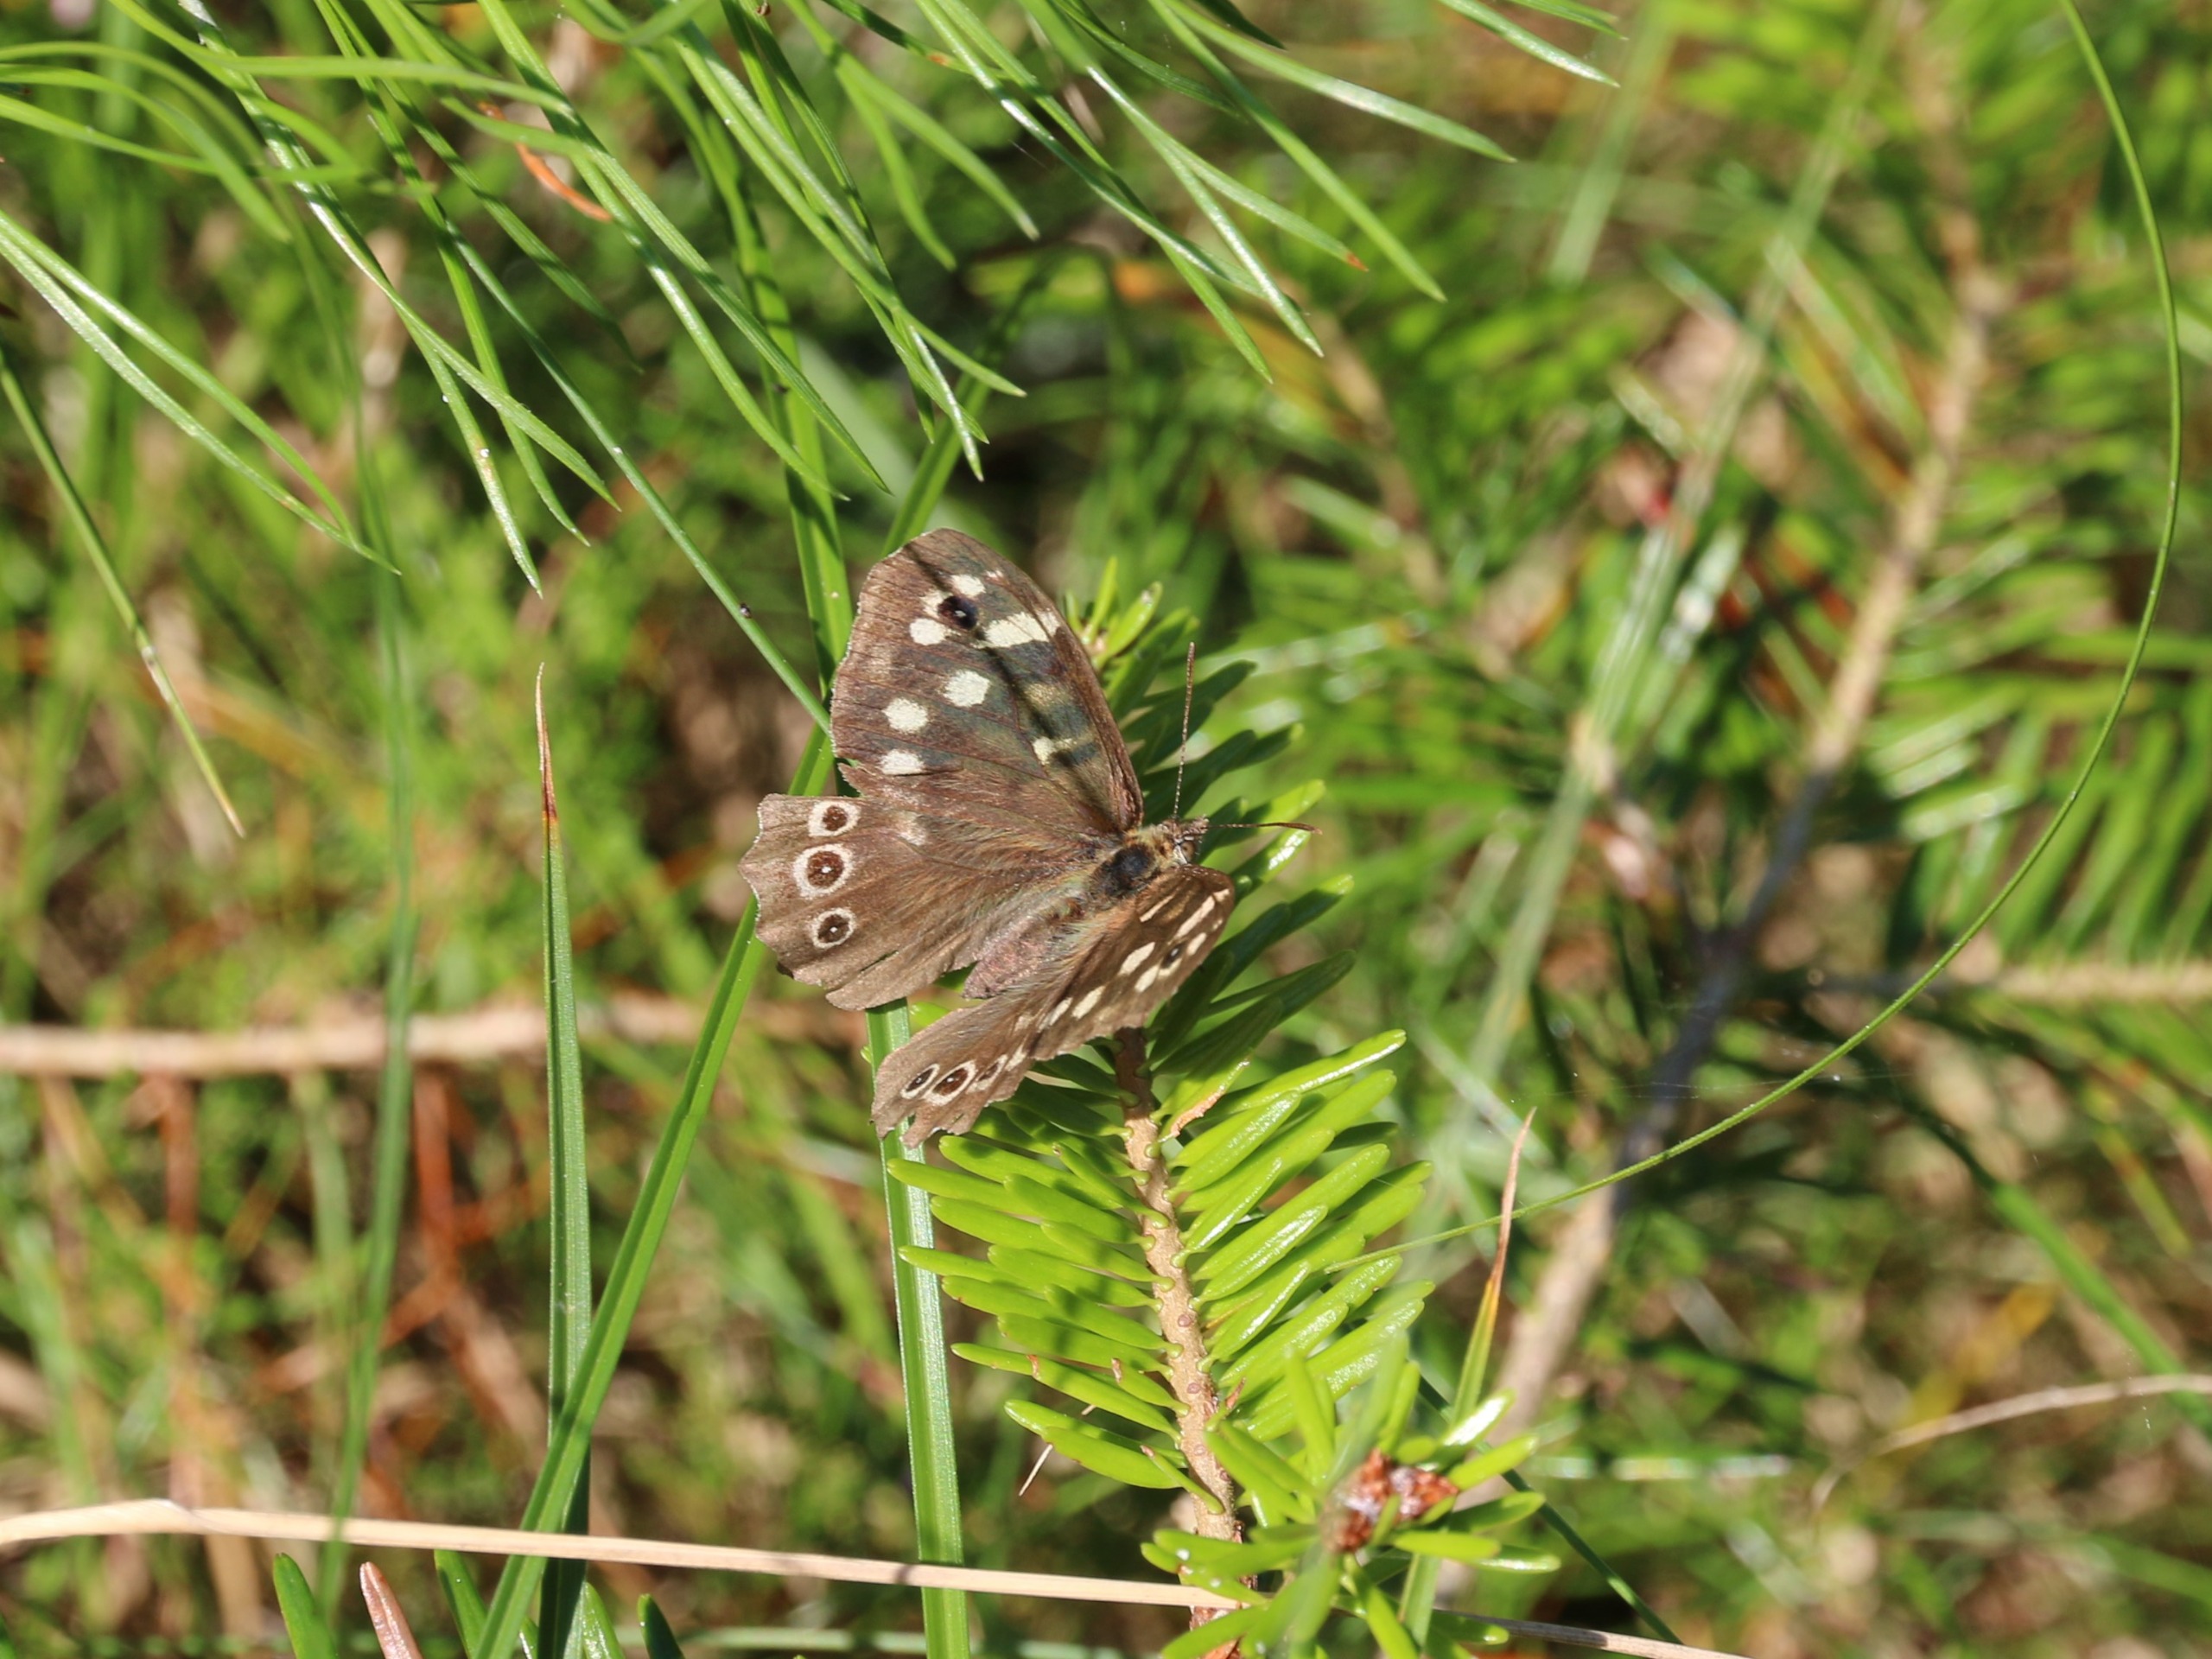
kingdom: Animalia
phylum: Arthropoda
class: Insecta
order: Lepidoptera
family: Nymphalidae
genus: Pararge
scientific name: Pararge aegeria
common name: Skovrandøje
